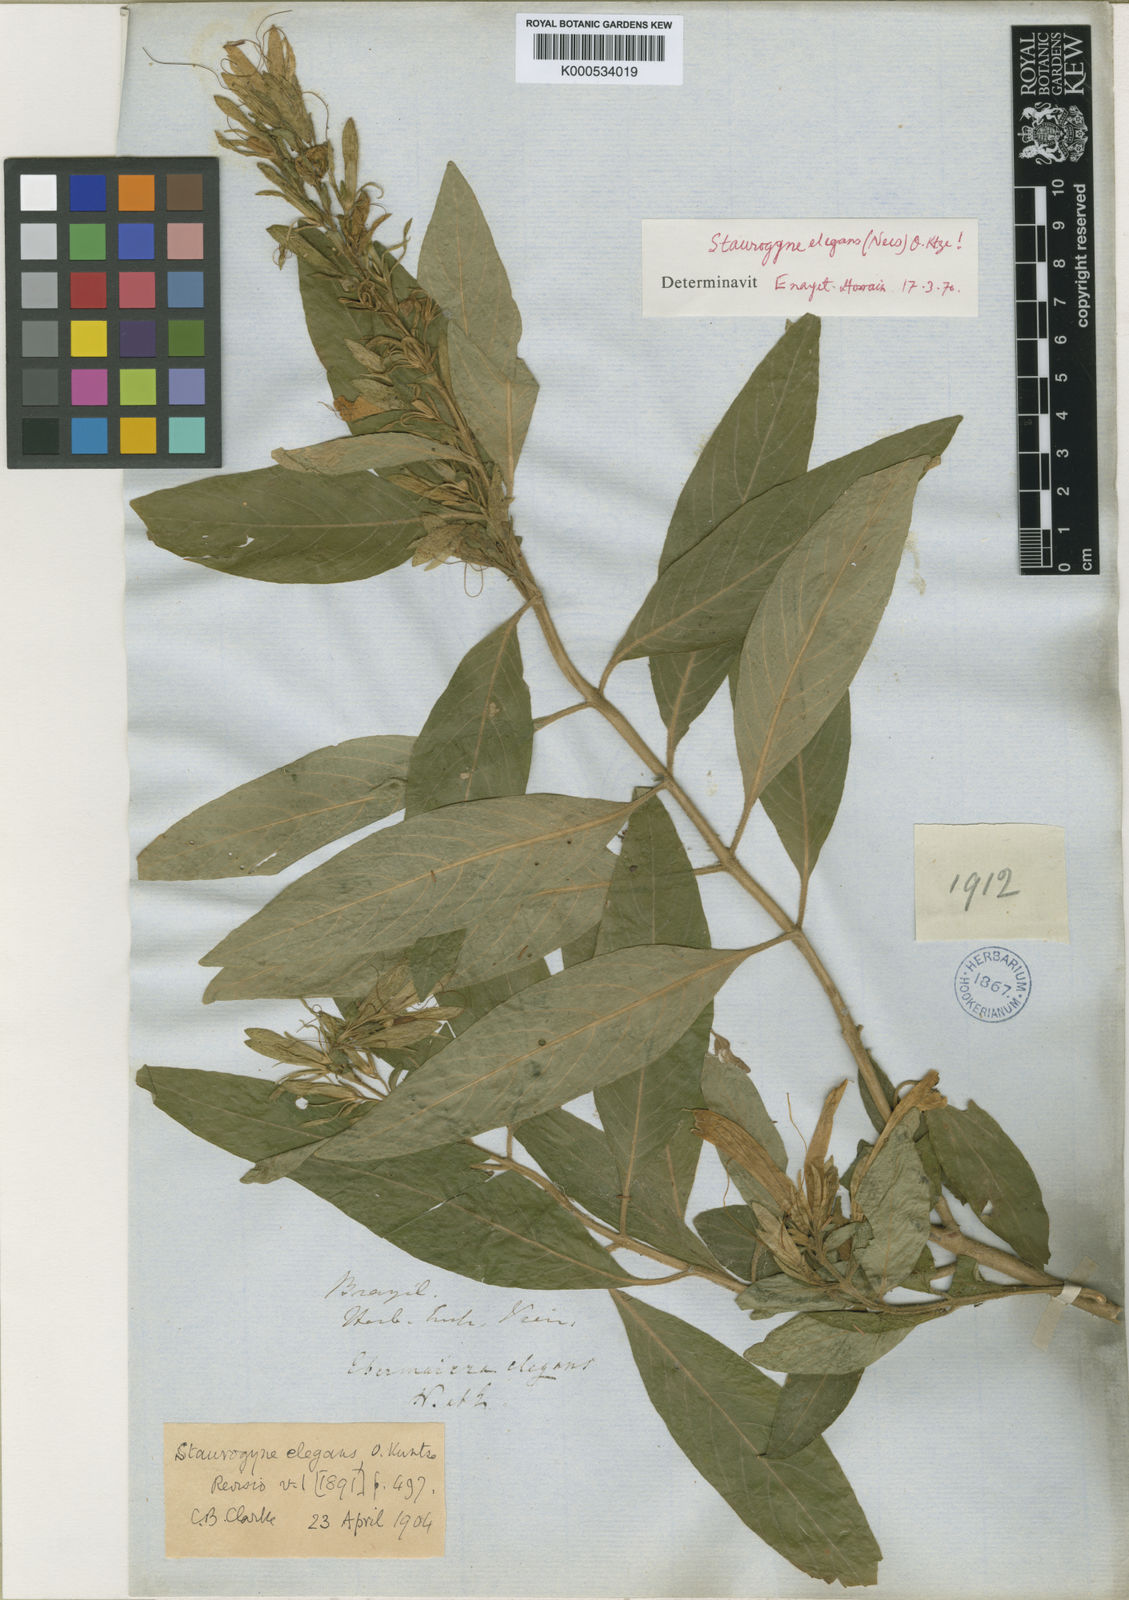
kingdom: Plantae
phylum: Tracheophyta
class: Magnoliopsida
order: Lamiales
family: Acanthaceae
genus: Staurogyne
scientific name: Staurogyne elegans
